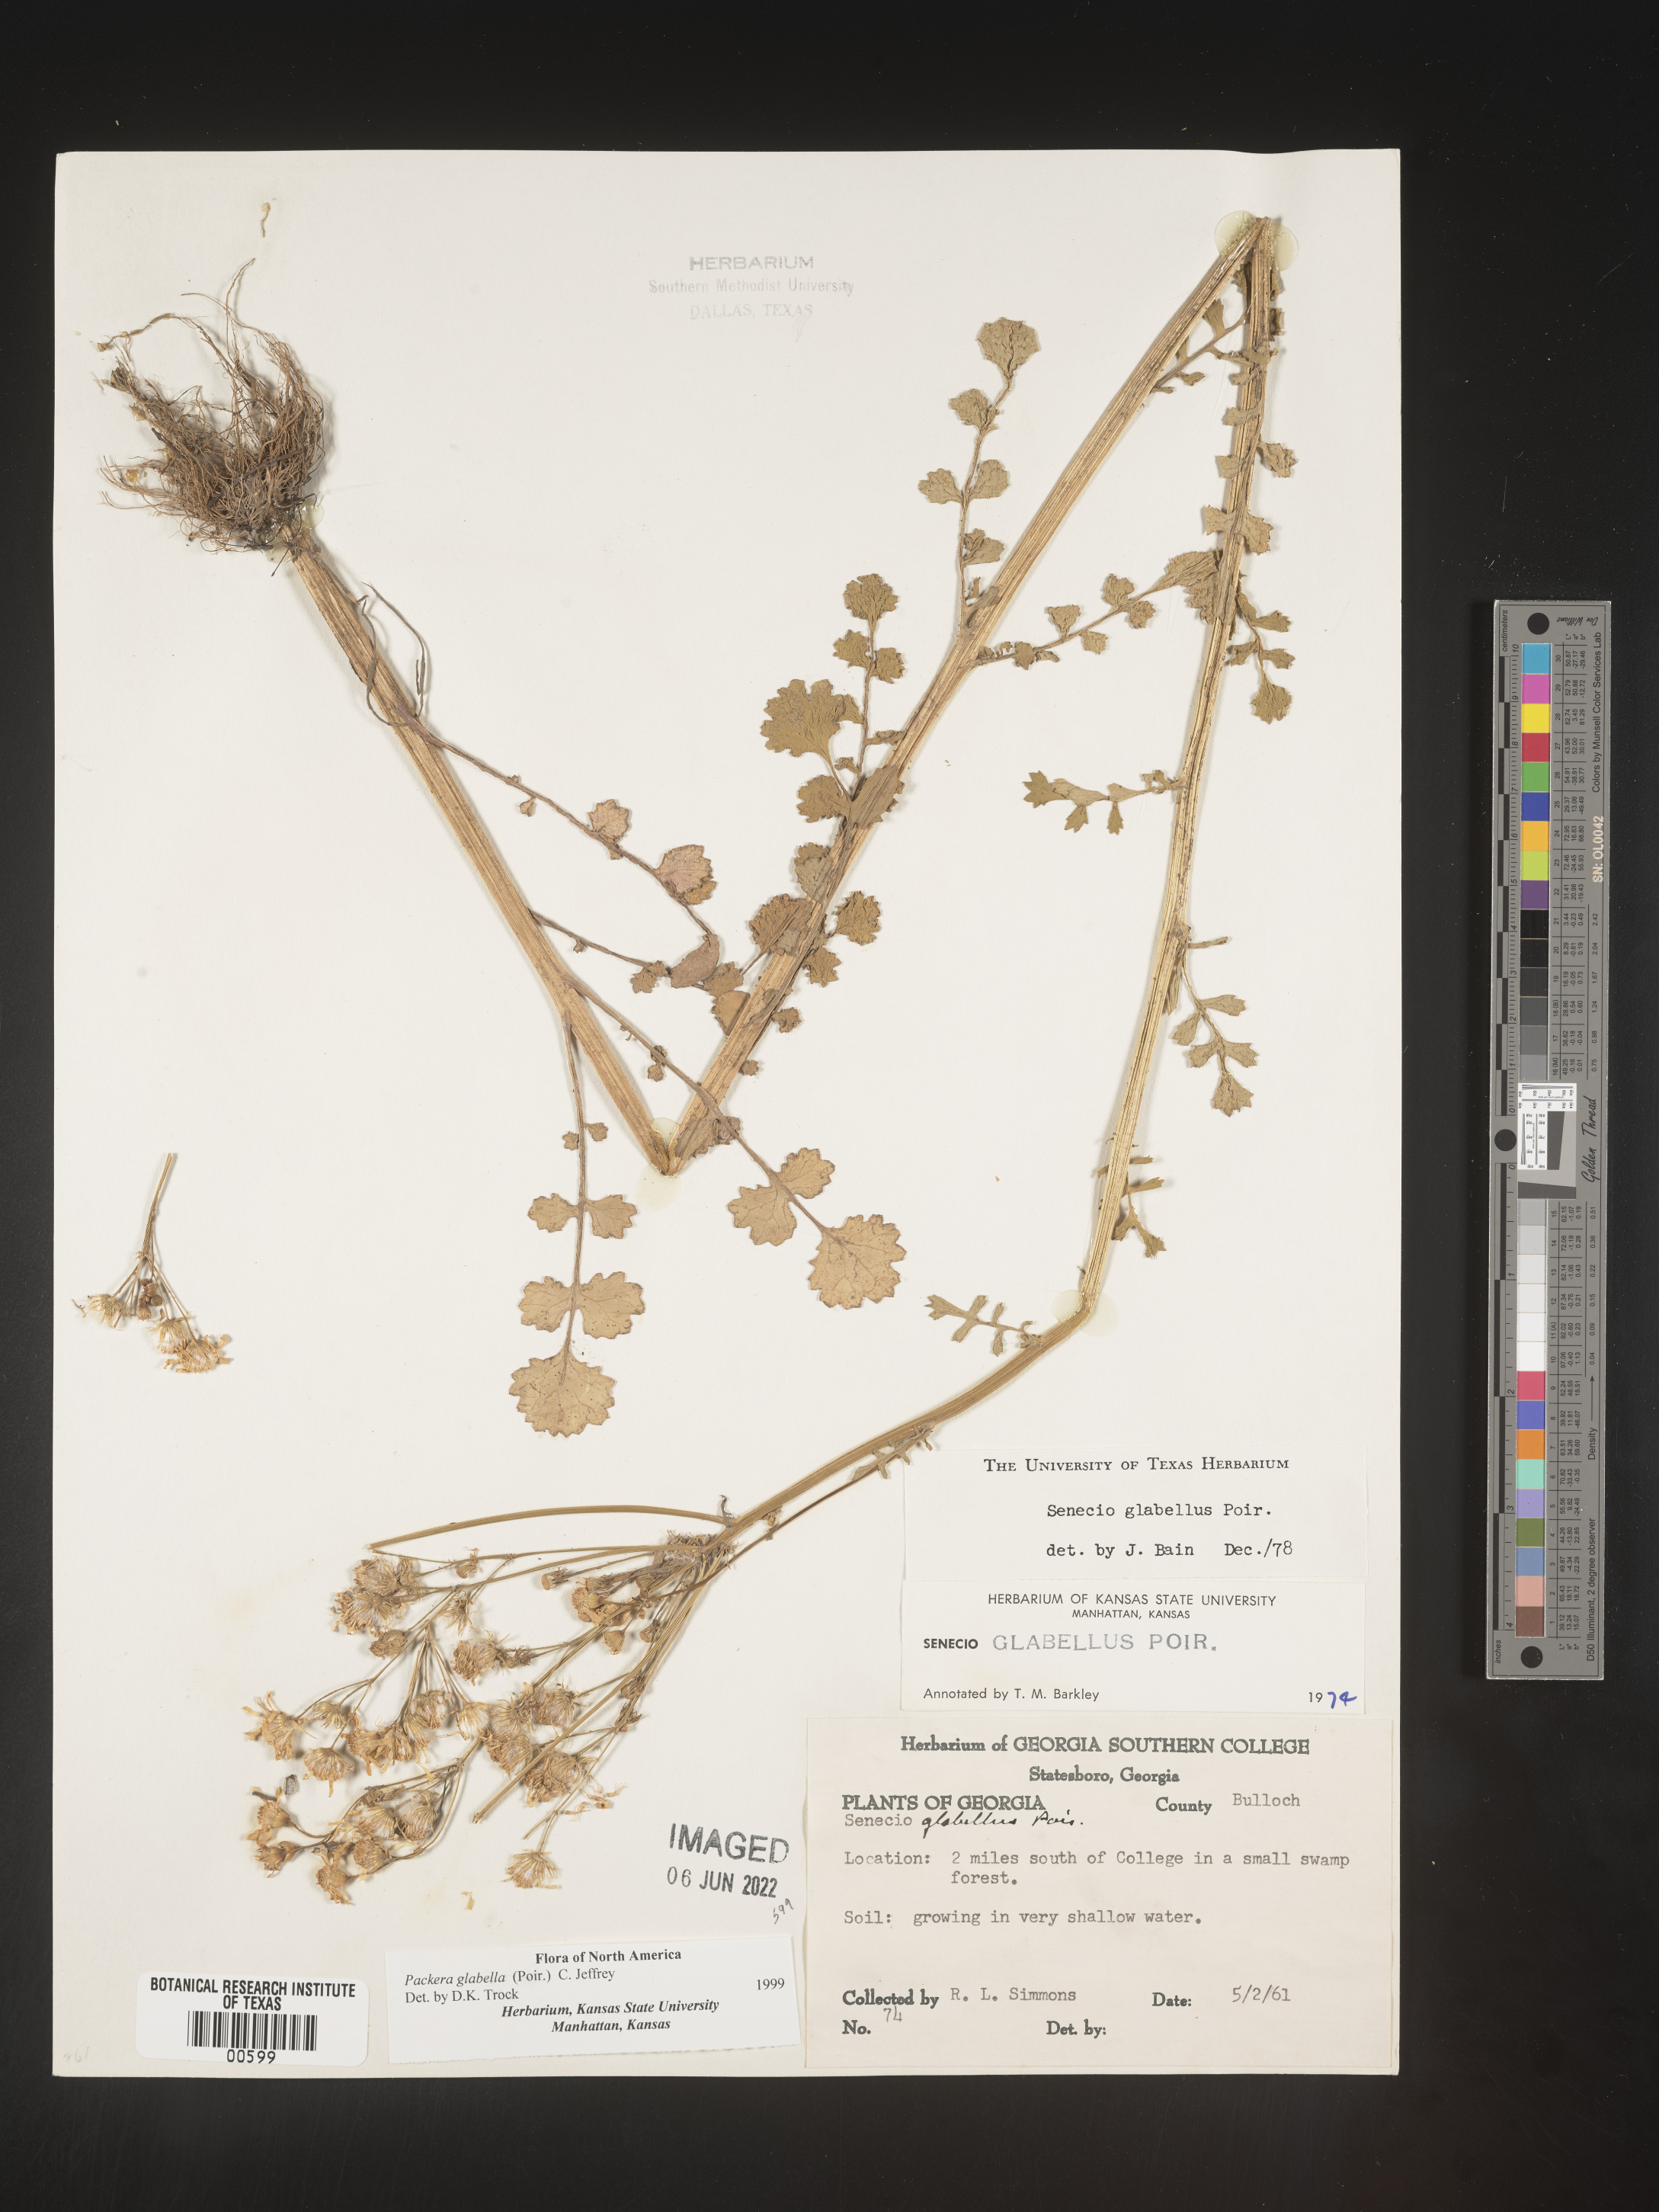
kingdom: Plantae
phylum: Tracheophyta
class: Magnoliopsida
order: Asterales
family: Asteraceae
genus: Packera
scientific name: Packera glabella
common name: Butterweed
